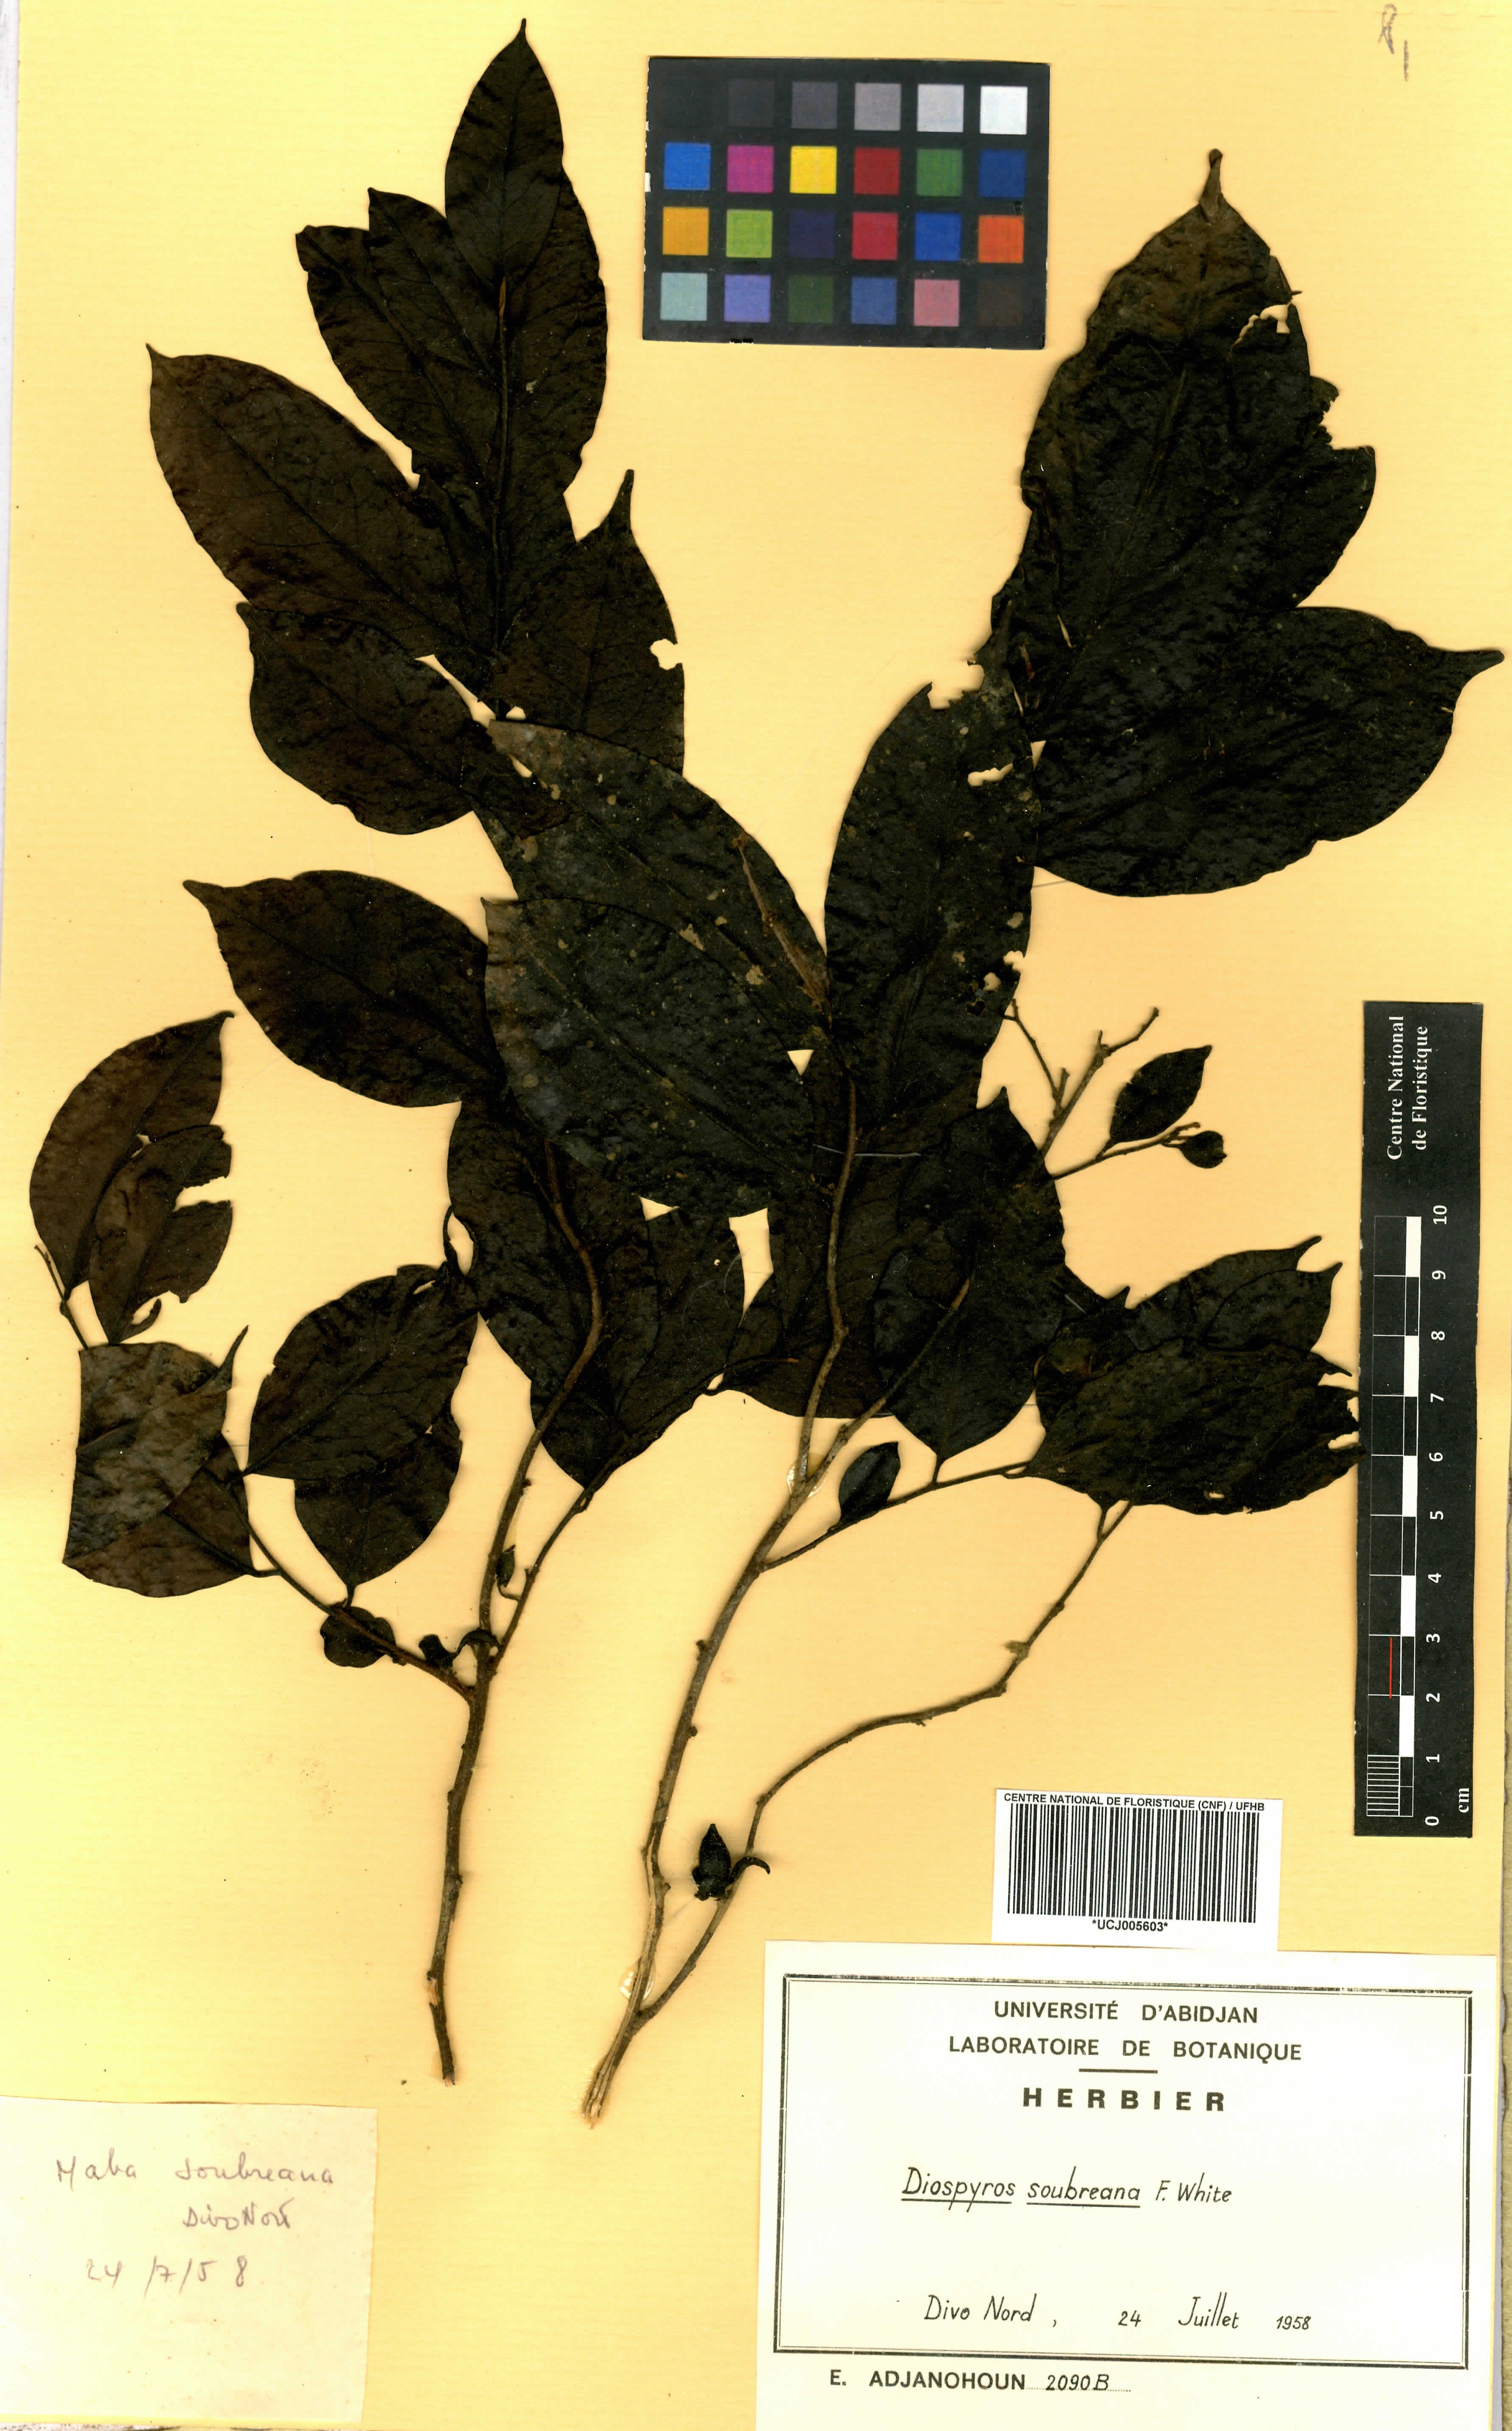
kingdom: Plantae
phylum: Tracheophyta
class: Magnoliopsida
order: Ericales
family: Ebenaceae
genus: Diospyros
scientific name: Diospyros soubreana
